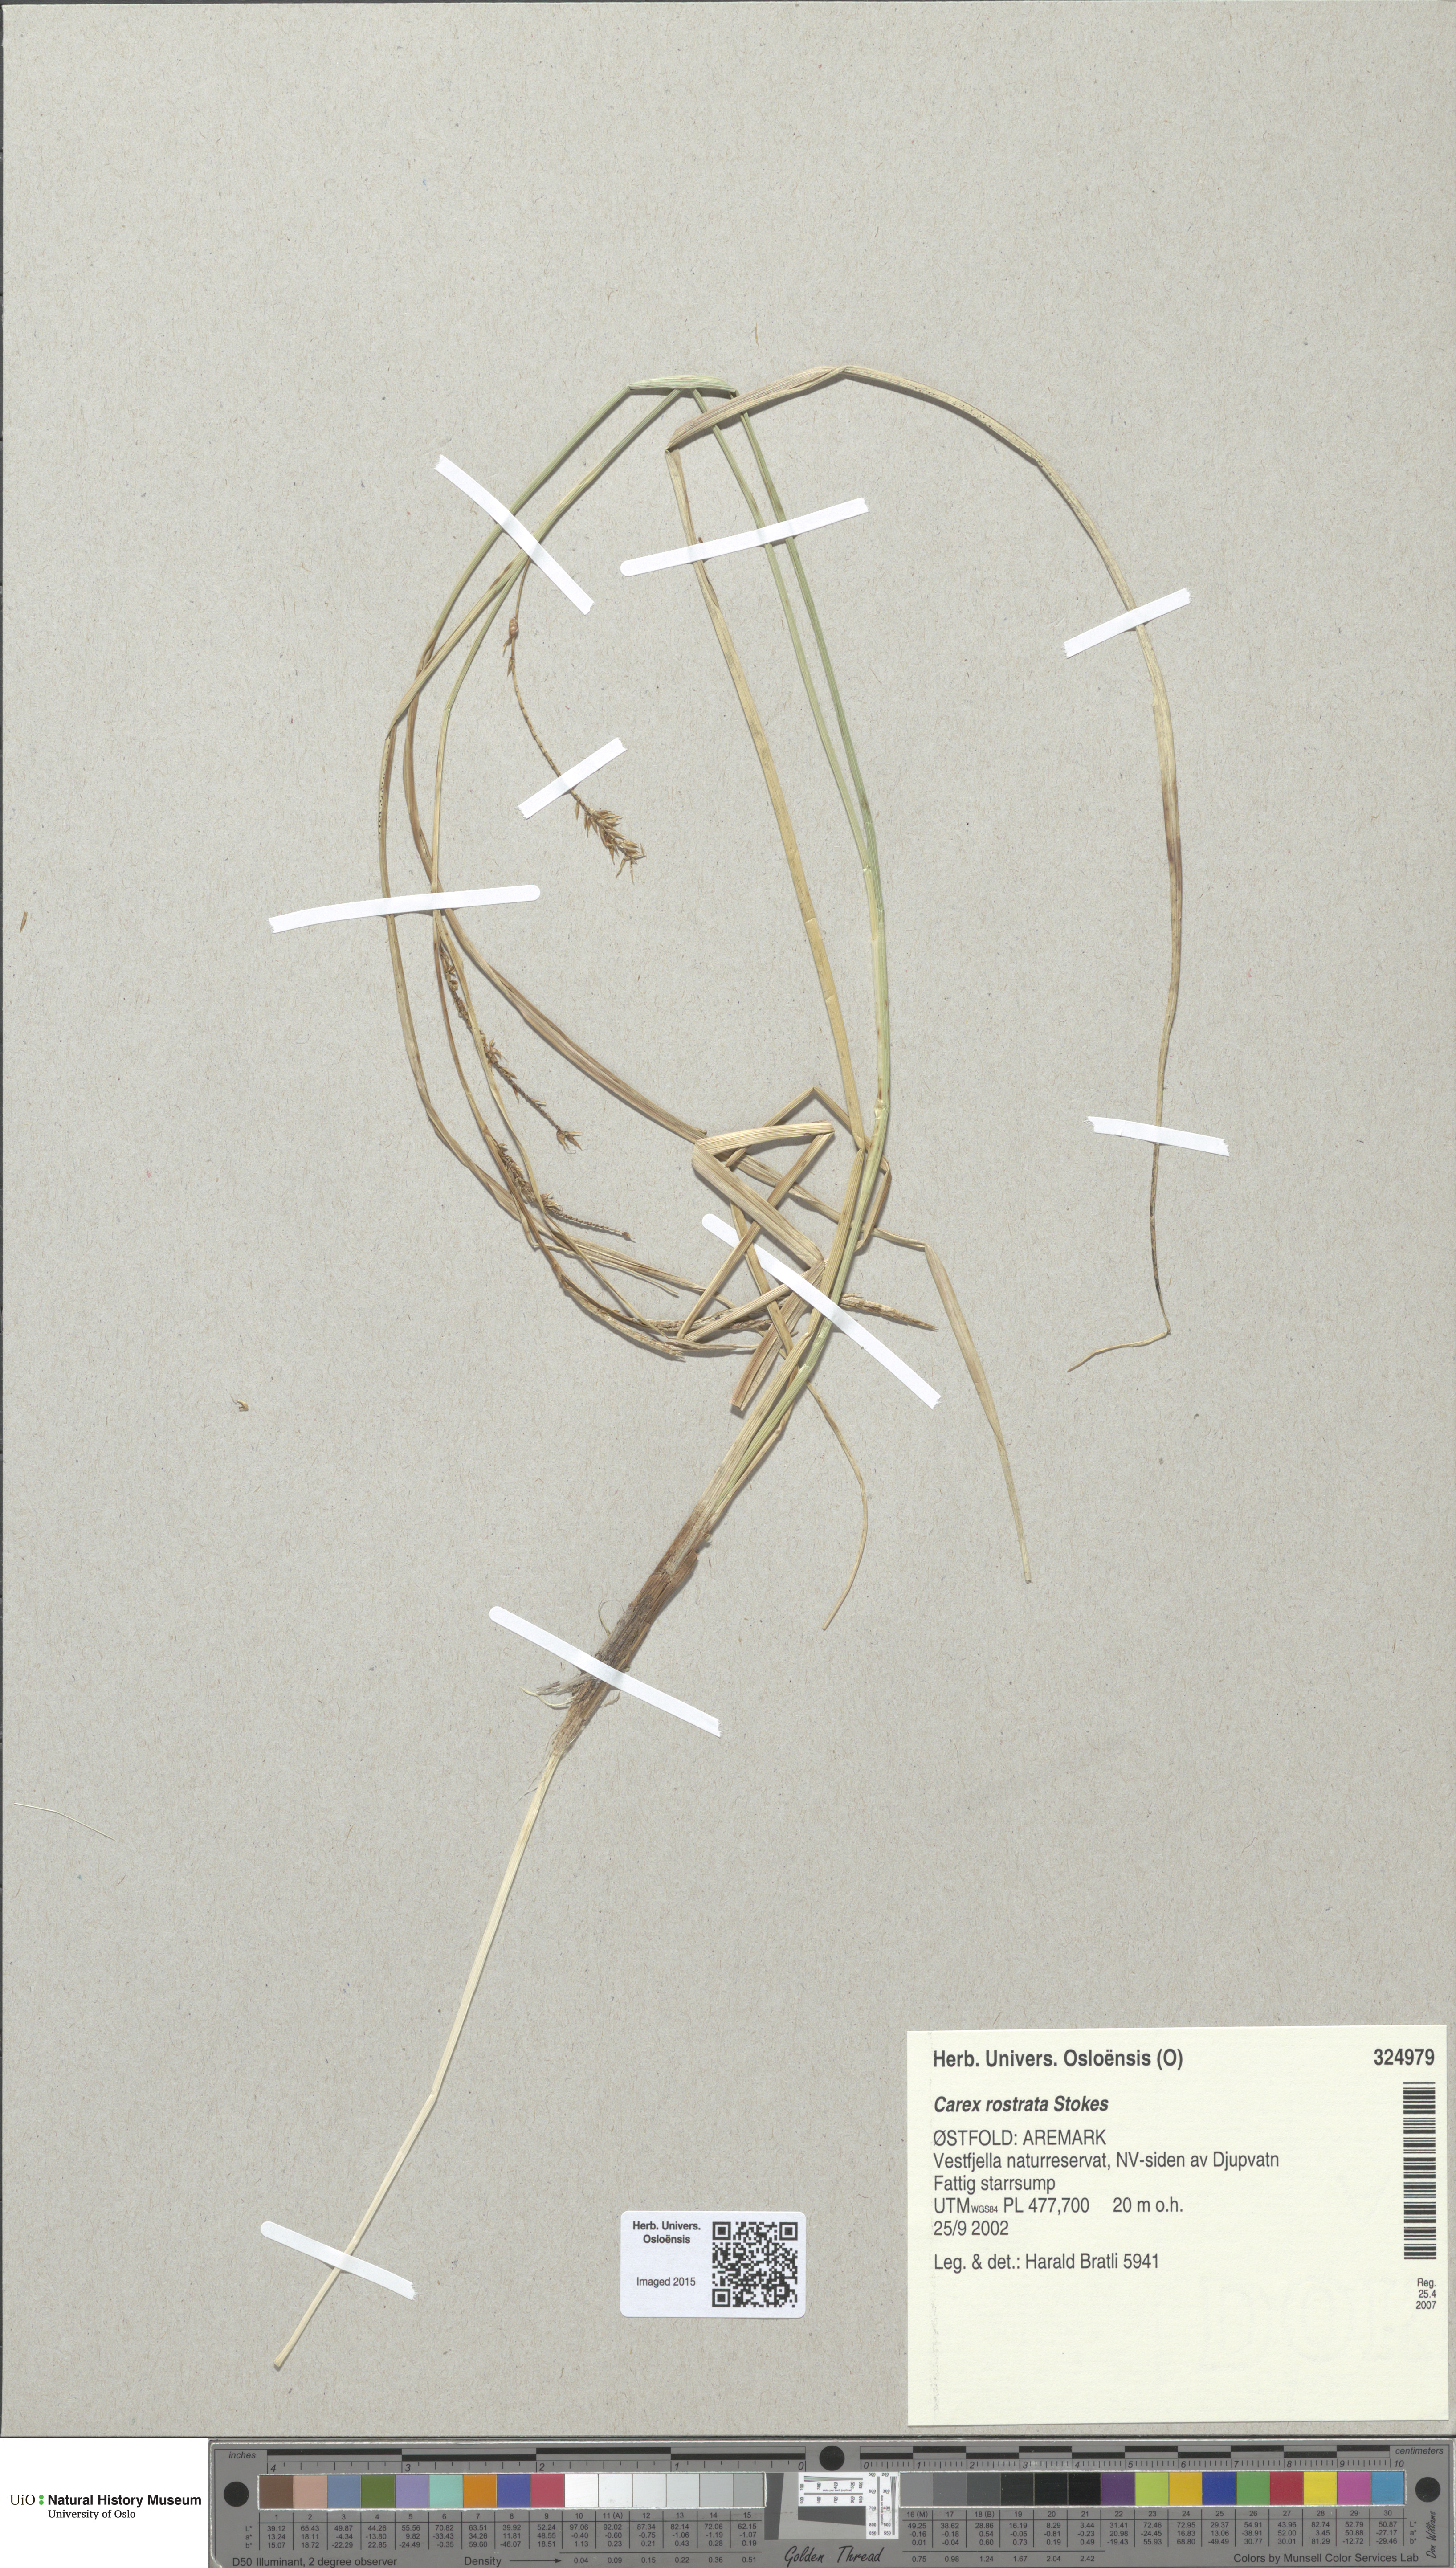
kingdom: Plantae
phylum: Tracheophyta
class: Liliopsida
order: Poales
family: Cyperaceae
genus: Carex
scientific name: Carex rostrata
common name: Bottle sedge
